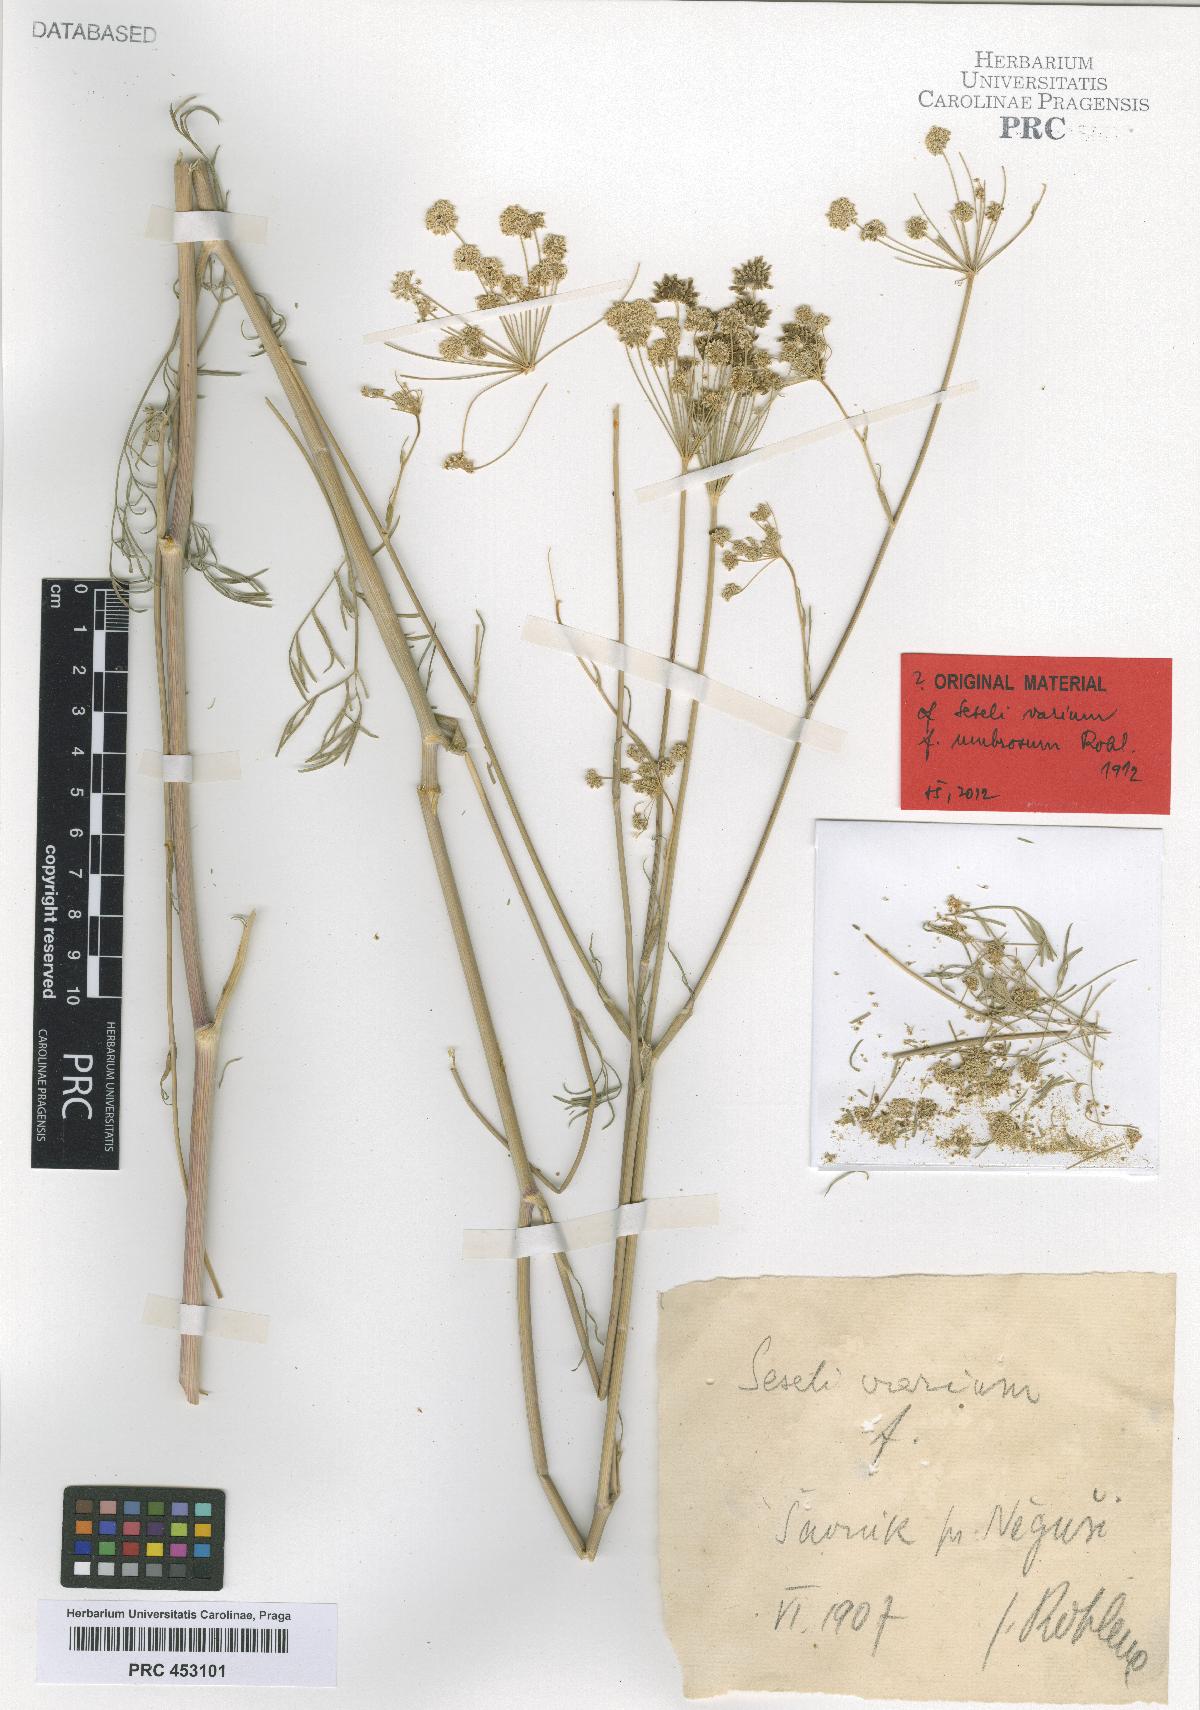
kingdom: Plantae
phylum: Tracheophyta
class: Magnoliopsida
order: Apiales
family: Apiaceae
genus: Seseli
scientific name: Seseli pallasii
